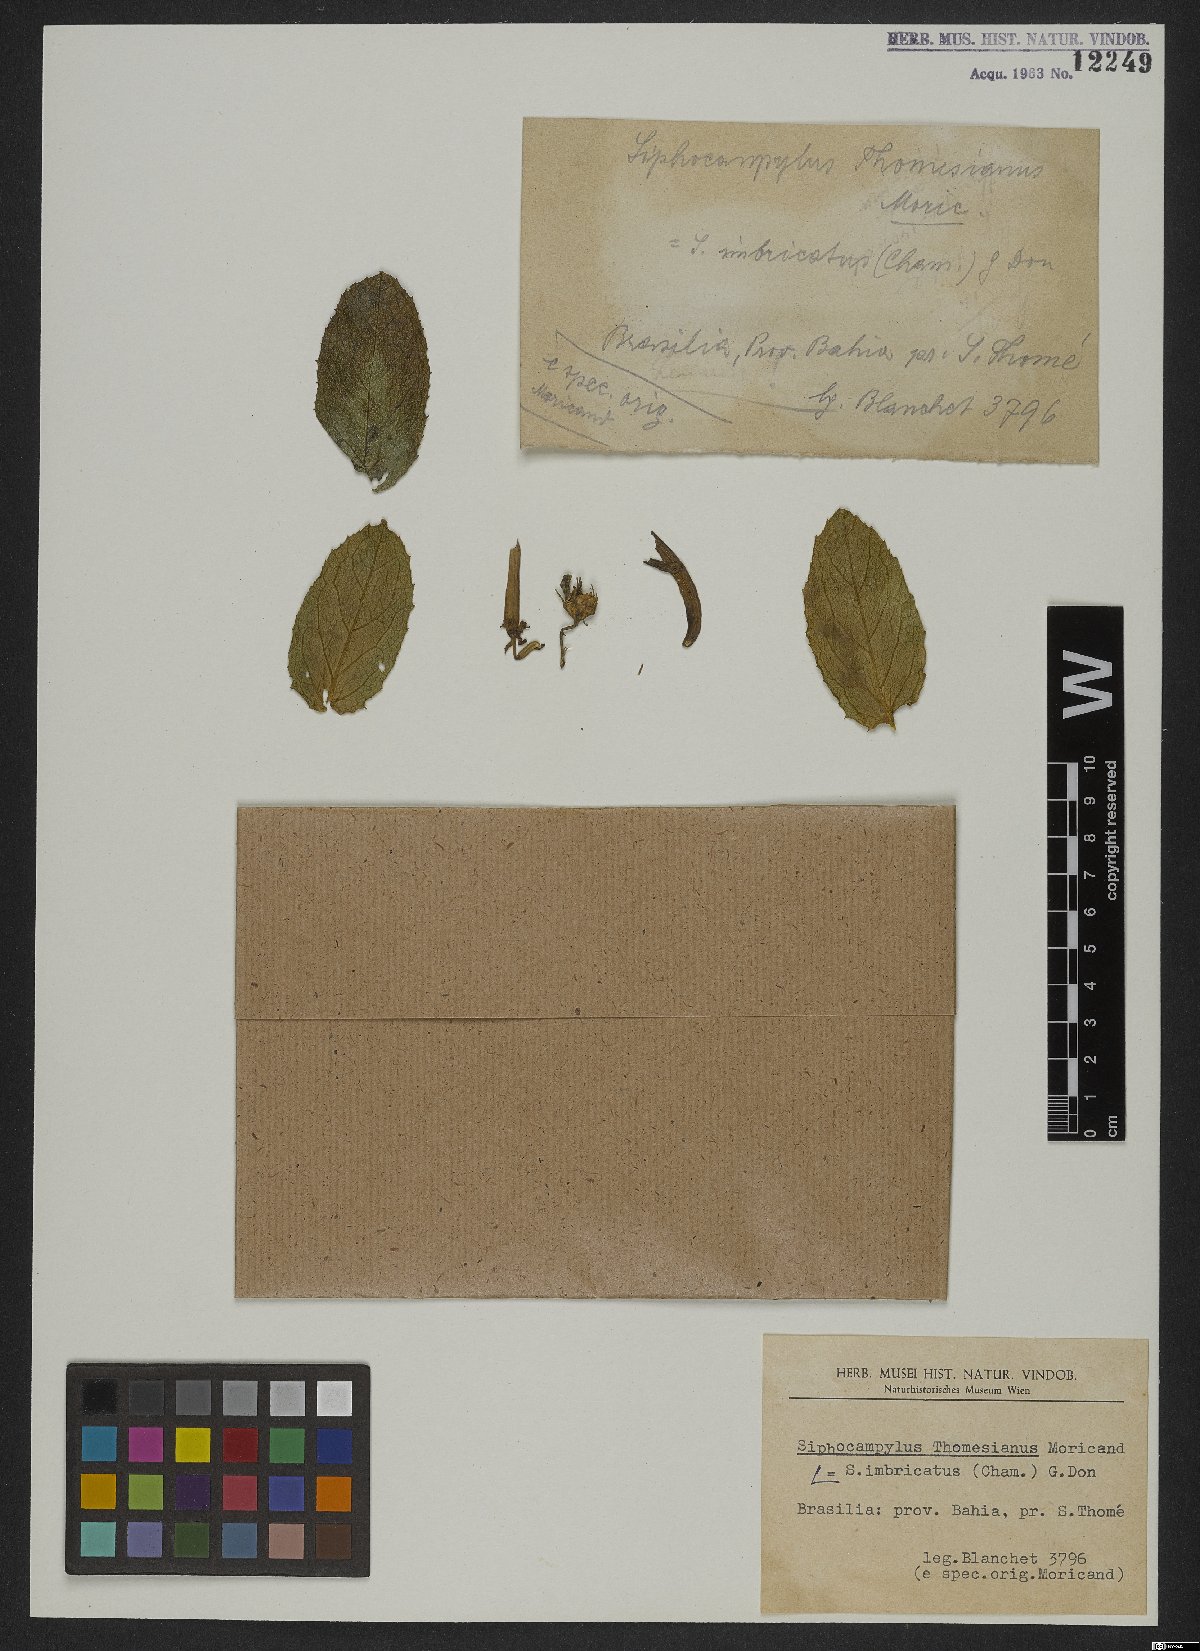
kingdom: Plantae
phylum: Tracheophyta
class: Magnoliopsida
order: Asterales
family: Campanulaceae
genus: Siphocampylus
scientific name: Siphocampylus imbricatus
